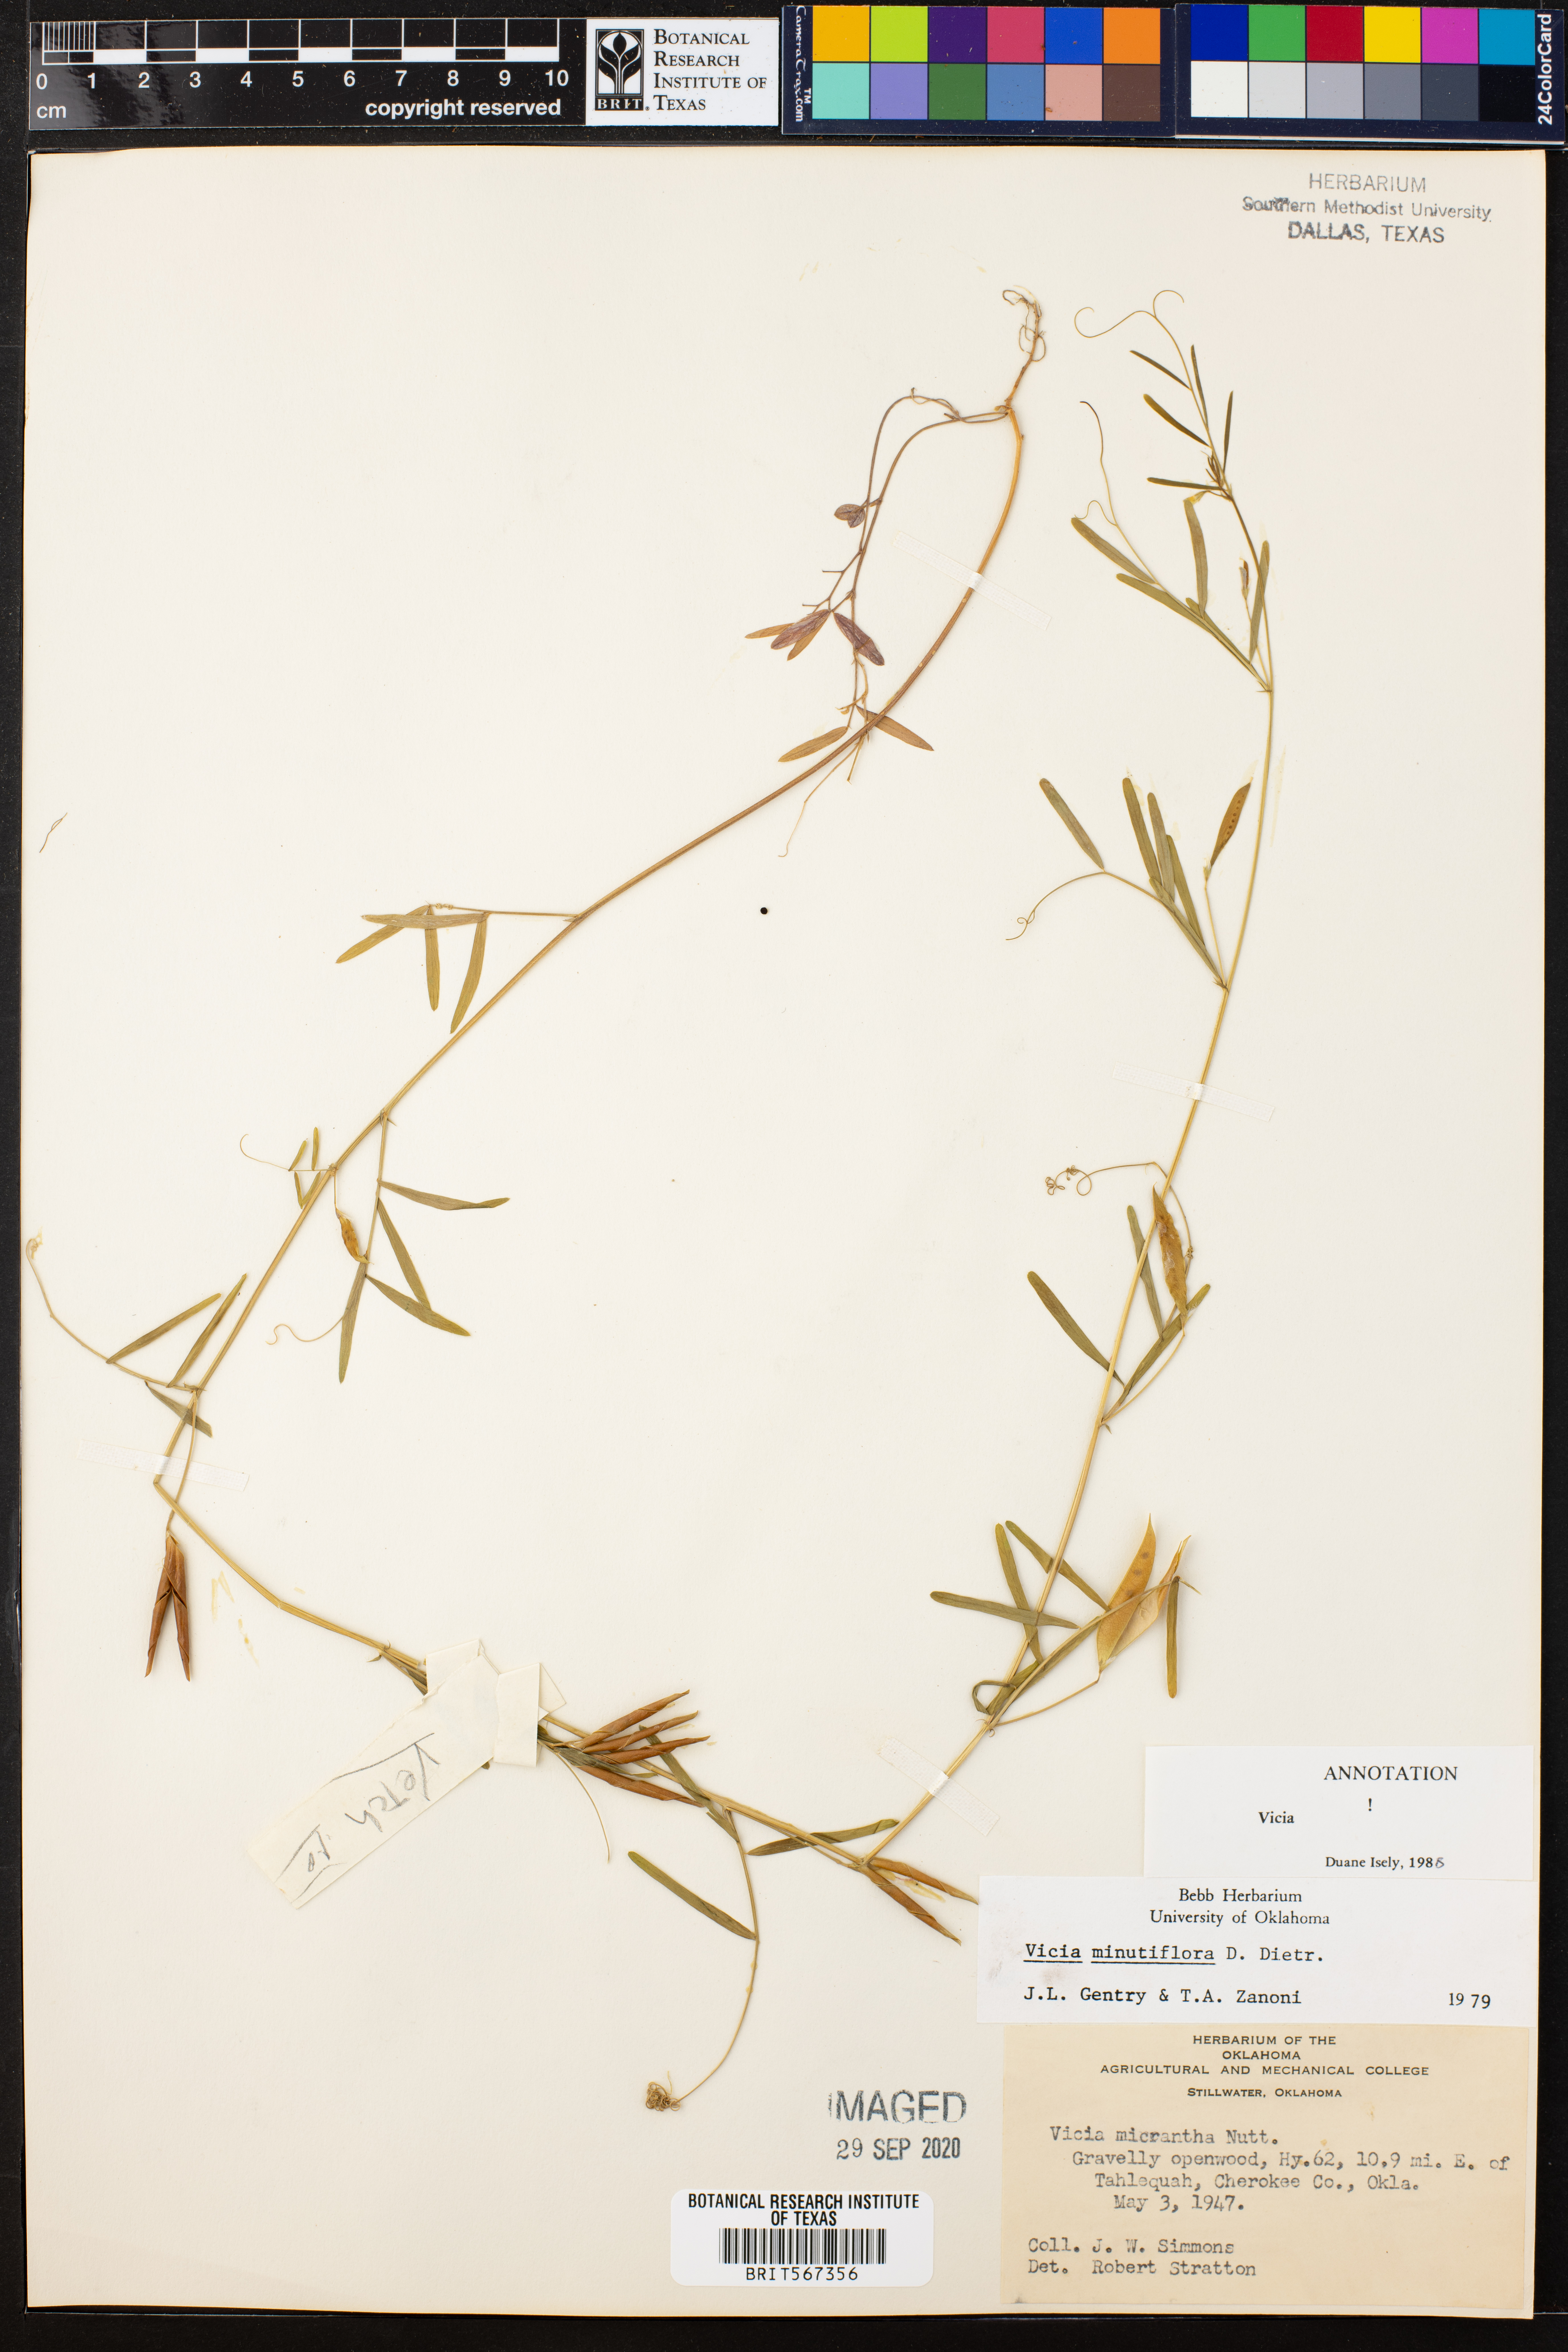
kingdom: Plantae
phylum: Tracheophyta
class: Magnoliopsida
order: Fabales
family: Fabaceae
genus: Vicia
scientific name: Vicia minutiflora
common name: Pygmy-flower vetch
